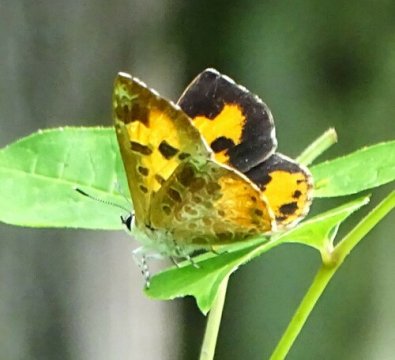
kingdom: Animalia
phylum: Arthropoda
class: Insecta
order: Lepidoptera
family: Lycaenidae
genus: Feniseca
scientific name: Feniseca tarquinius
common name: Harvester
